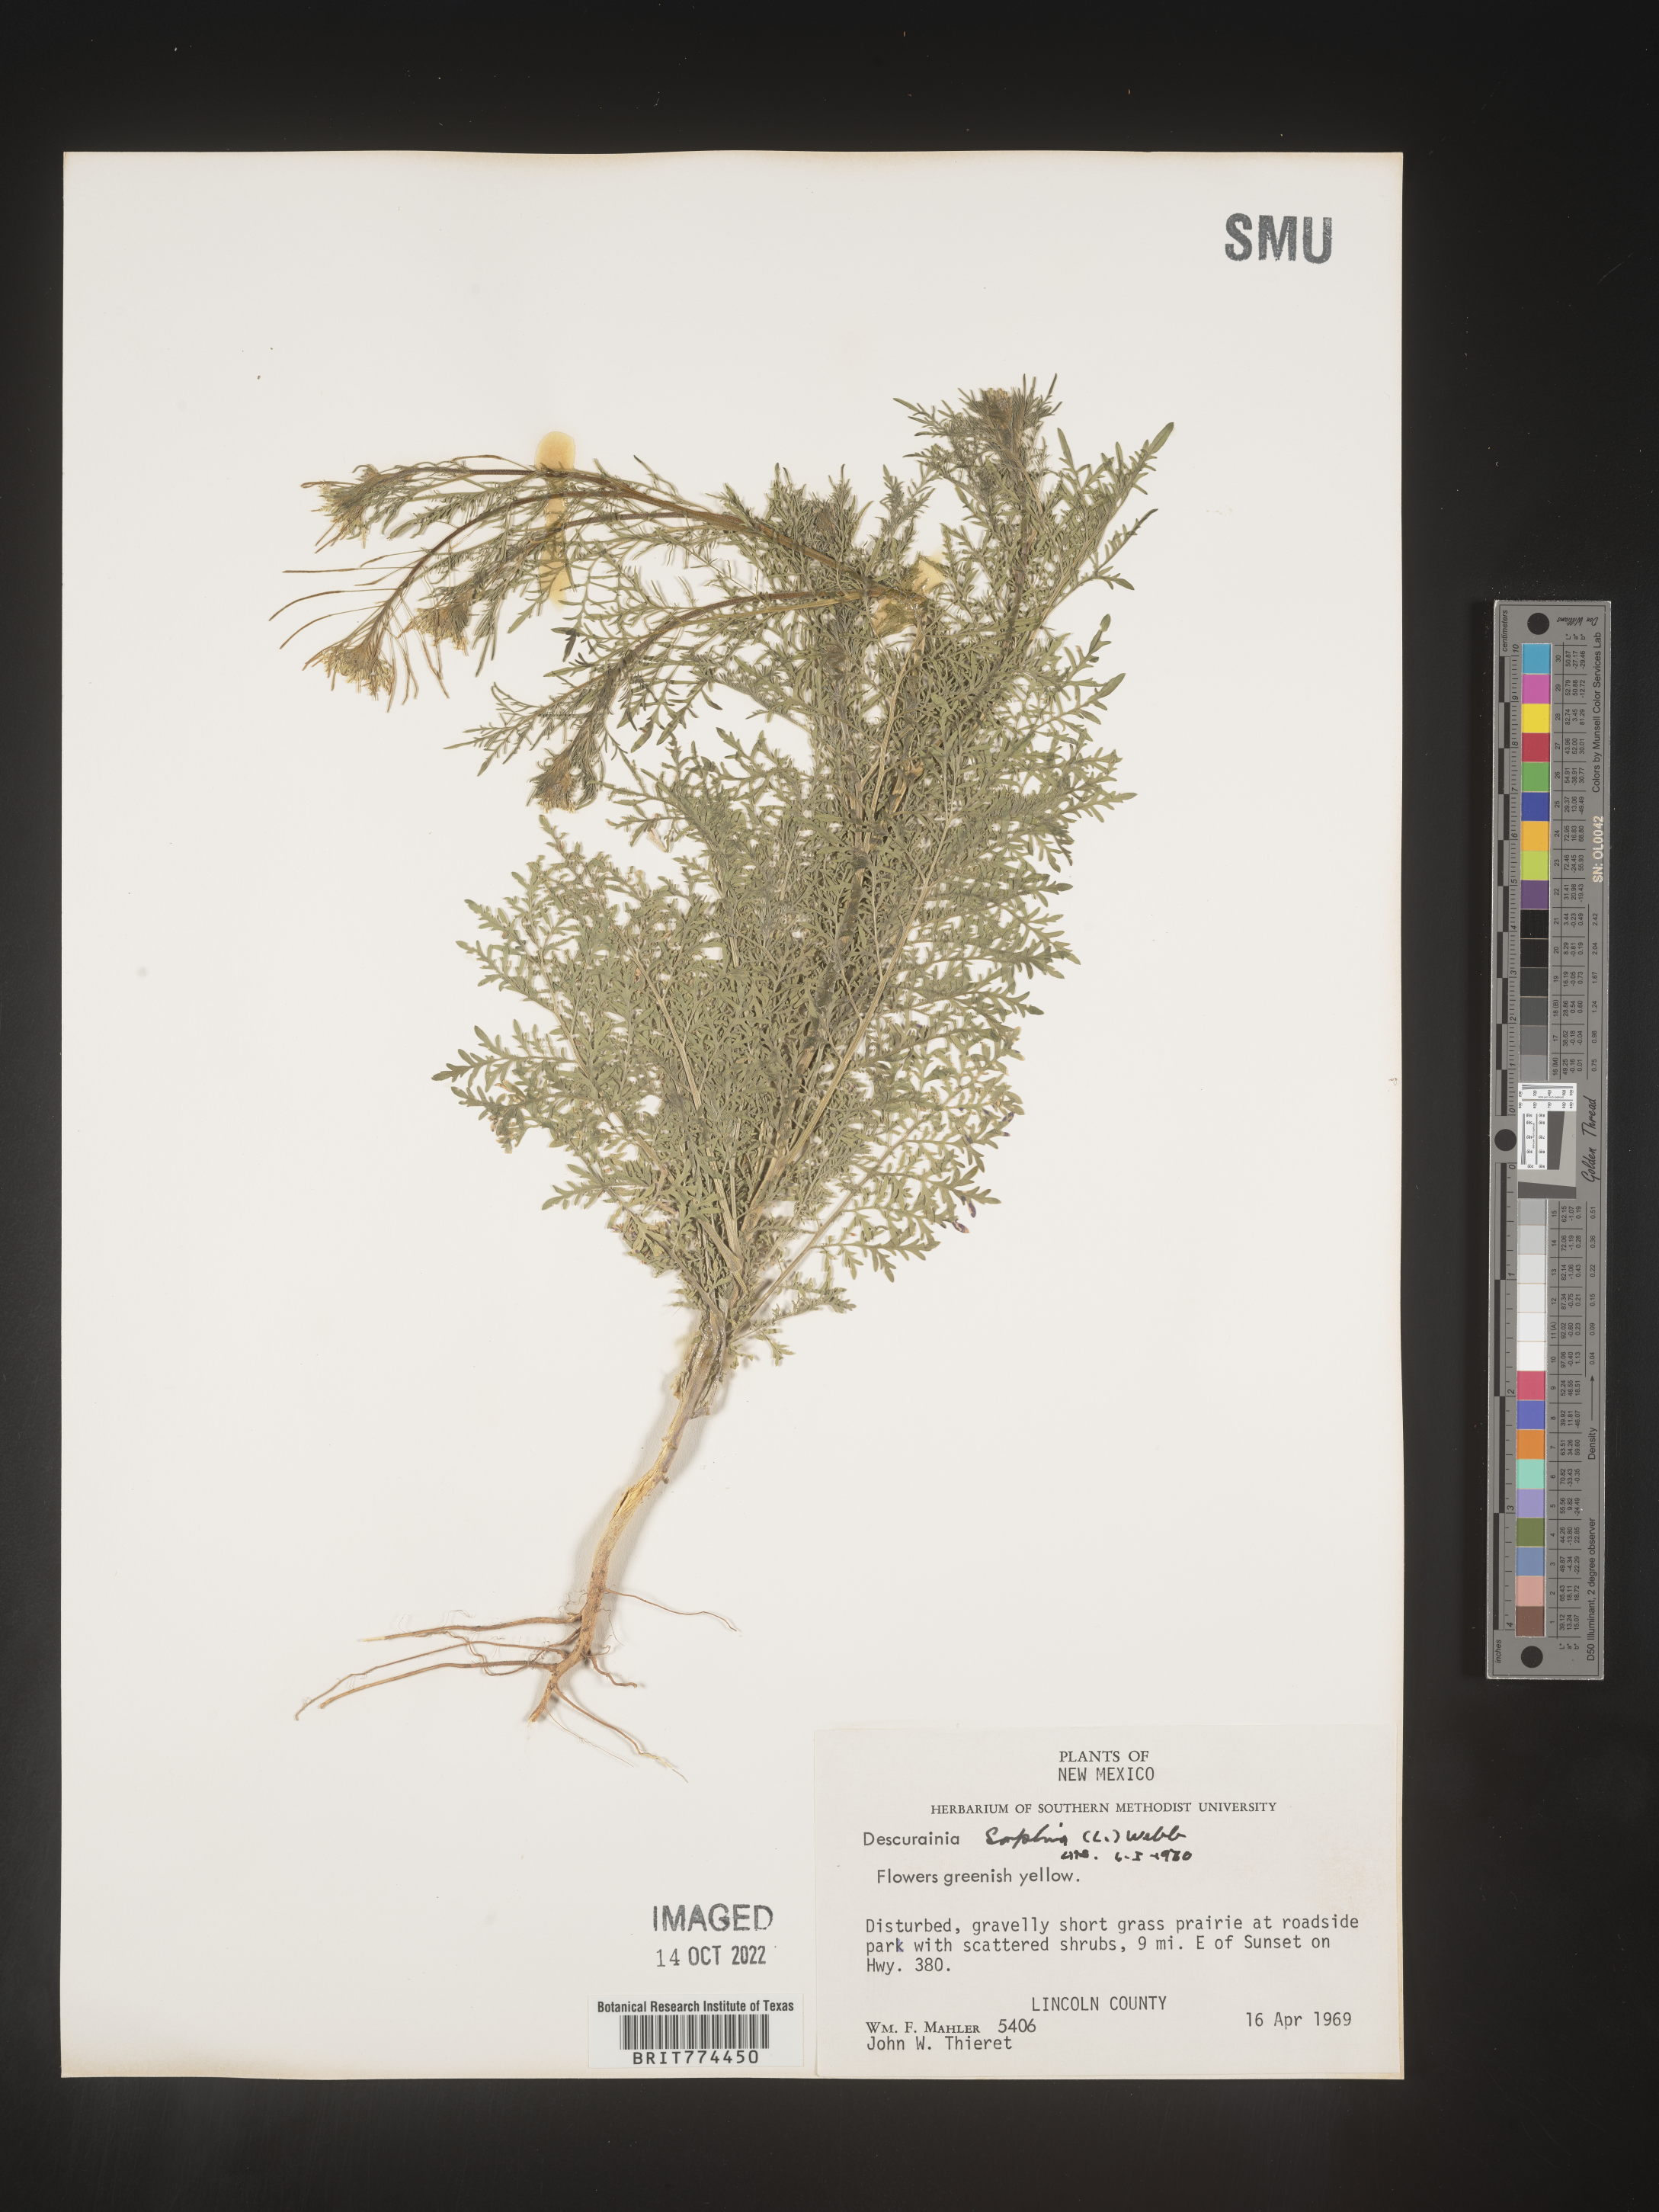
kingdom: Plantae
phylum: Tracheophyta
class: Magnoliopsida
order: Brassicales
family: Brassicaceae
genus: Descurainia
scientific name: Descurainia sophia
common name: Flixweed
